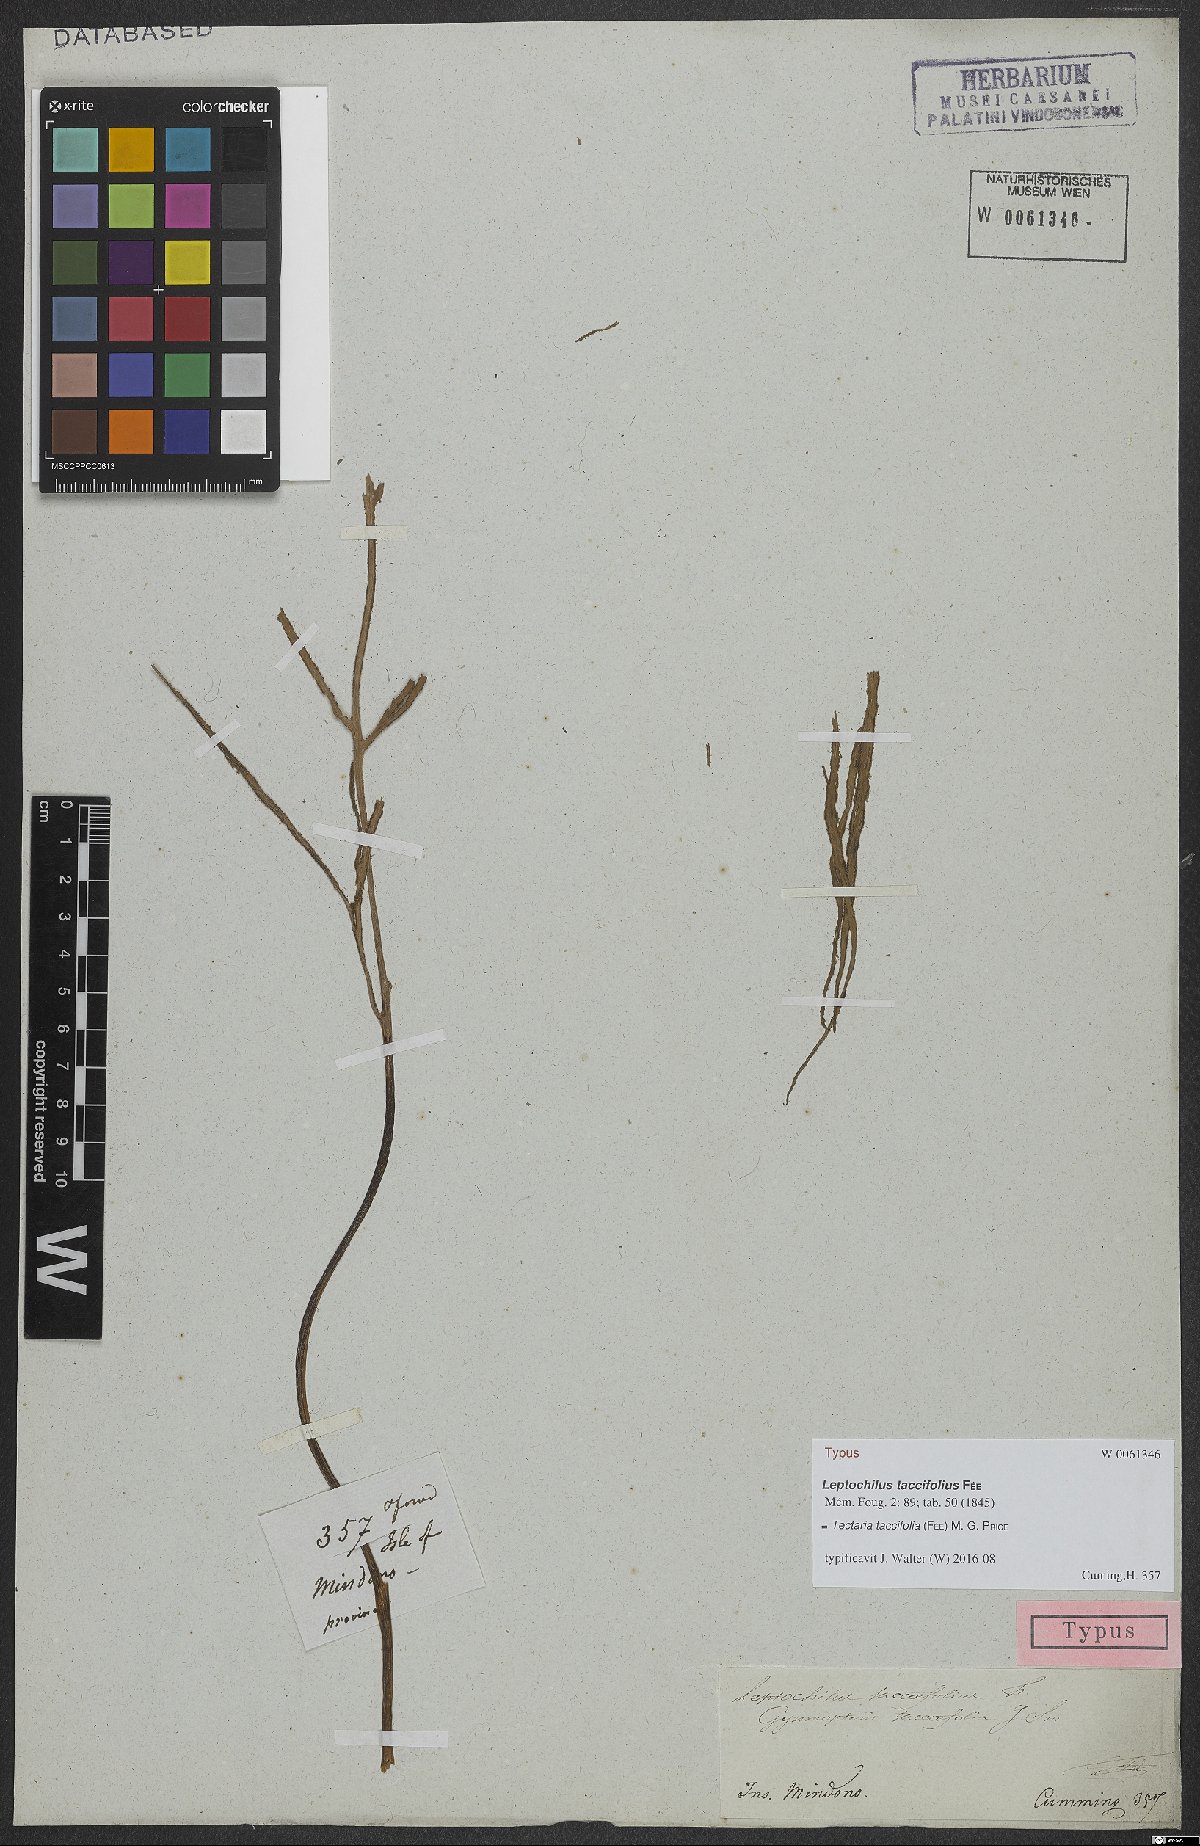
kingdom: Plantae
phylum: Tracheophyta
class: Polypodiopsida
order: Polypodiales
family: Tectariaceae
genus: Tectaria
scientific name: Tectaria taccifolia
